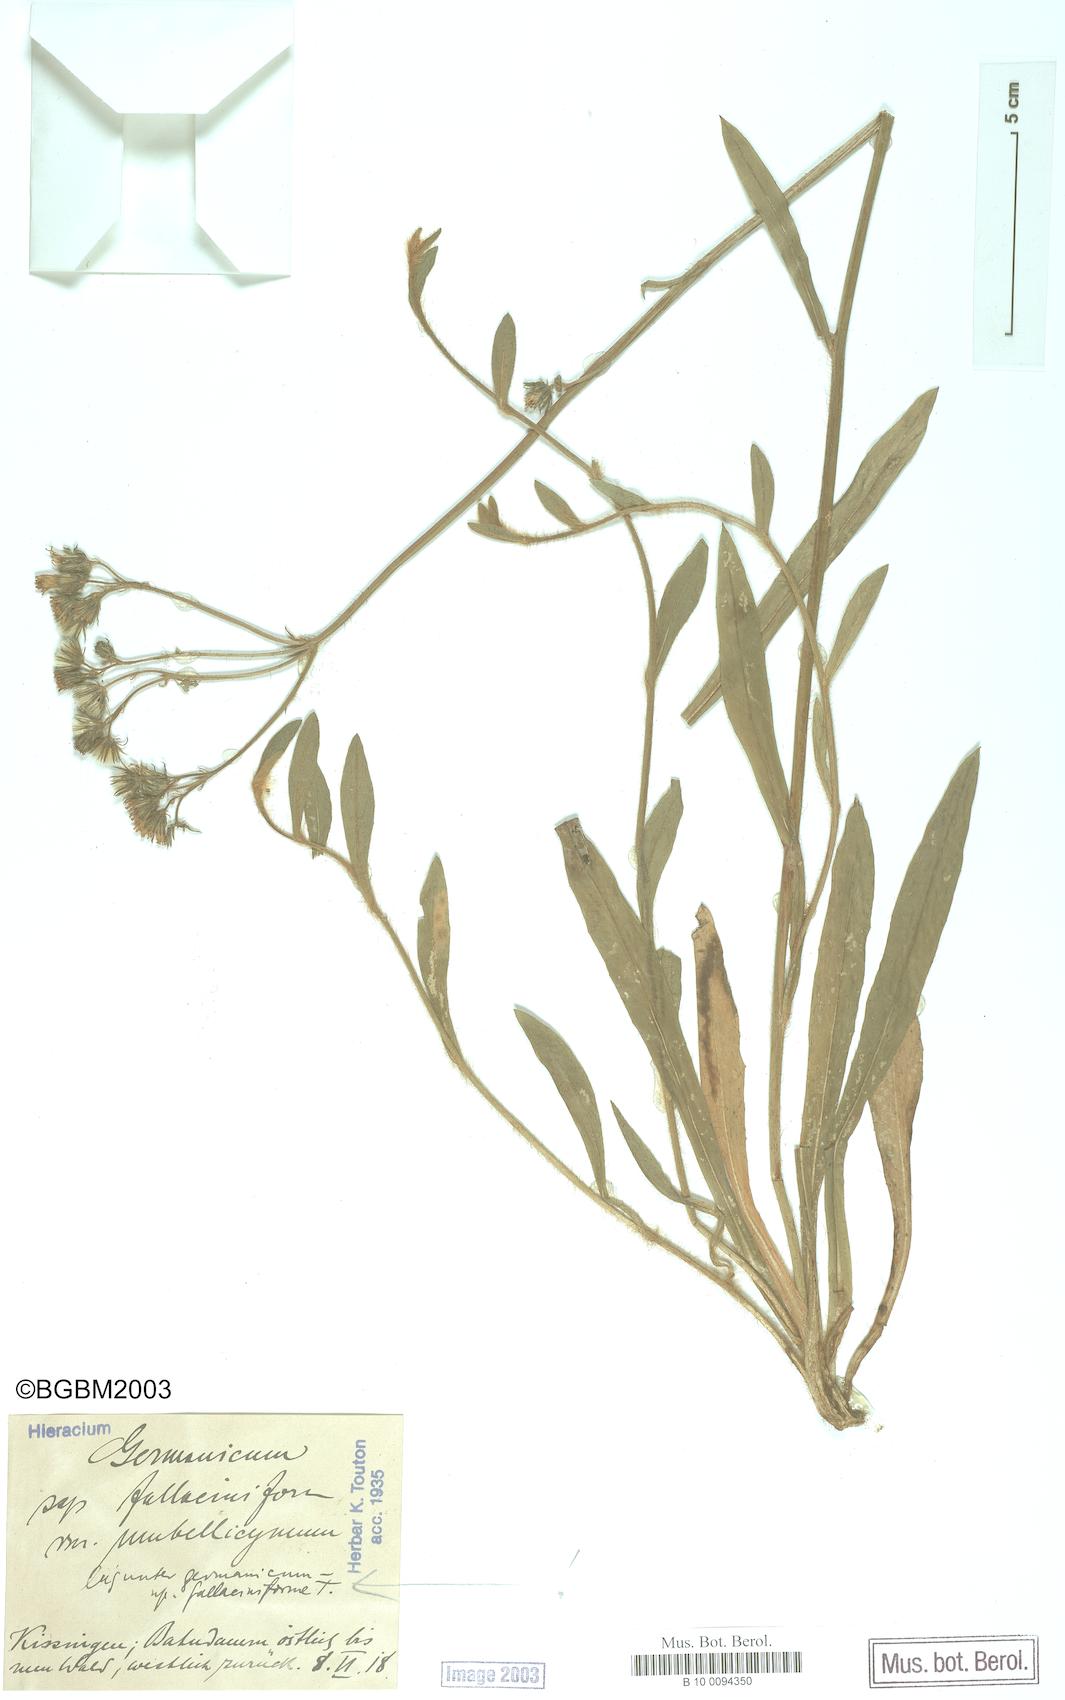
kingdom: Plantae
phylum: Tracheophyta
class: Magnoliopsida
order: Asterales
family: Asteraceae
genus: Pilosella
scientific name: Pilosella fallacina
